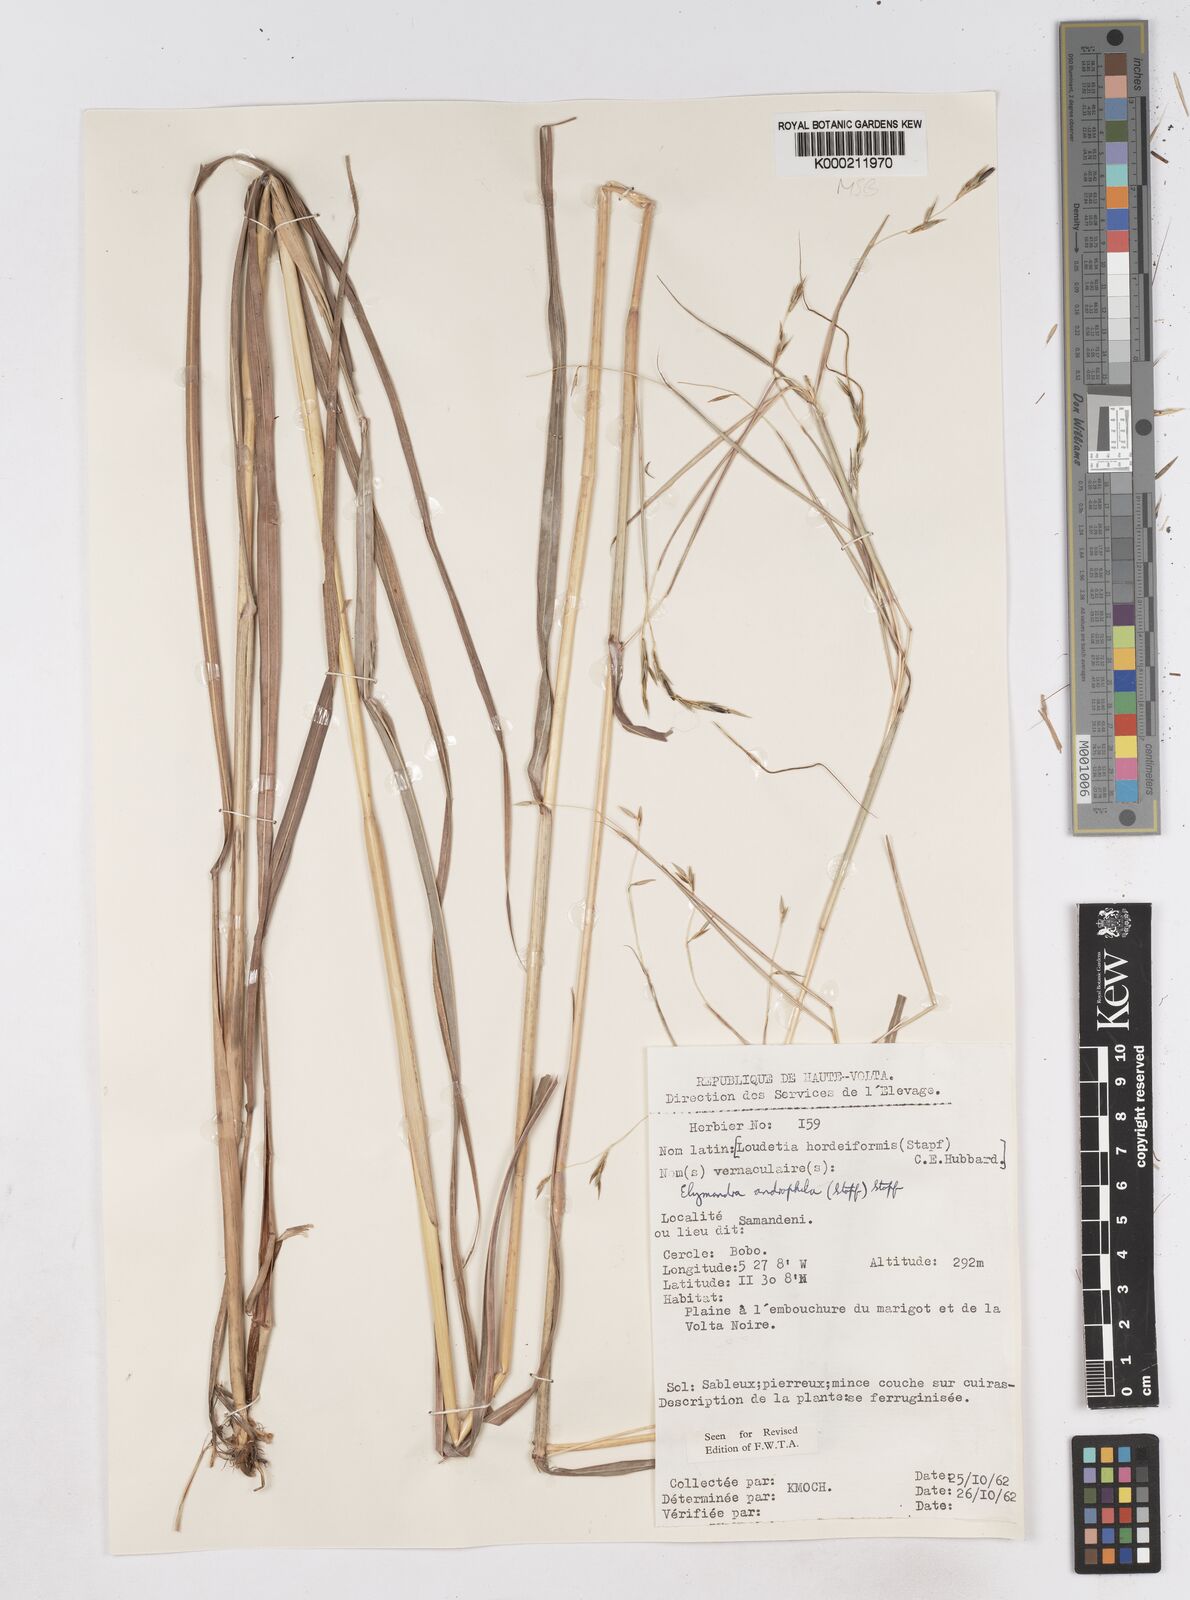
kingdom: Plantae
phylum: Tracheophyta
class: Liliopsida
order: Poales
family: Poaceae
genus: Elymandra
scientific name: Elymandra androphila
